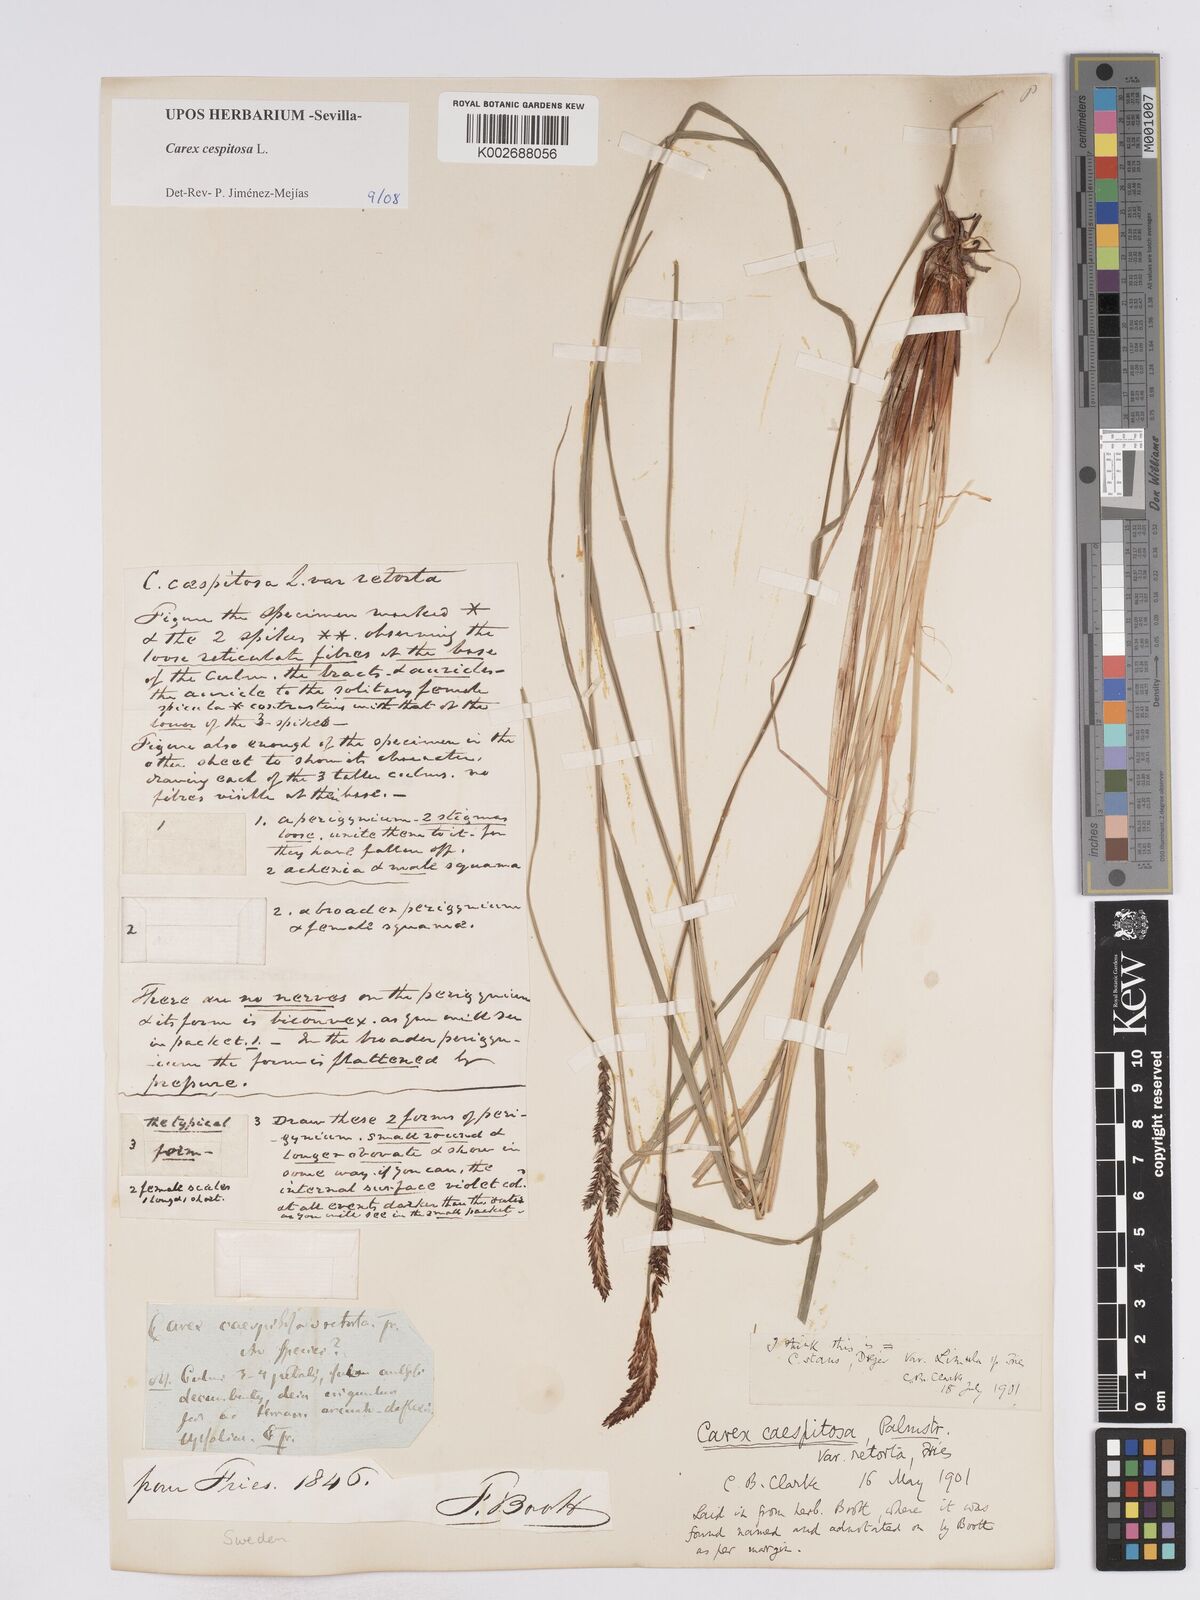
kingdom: Plantae
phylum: Tracheophyta
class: Liliopsida
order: Poales
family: Cyperaceae
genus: Carex
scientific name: Carex
